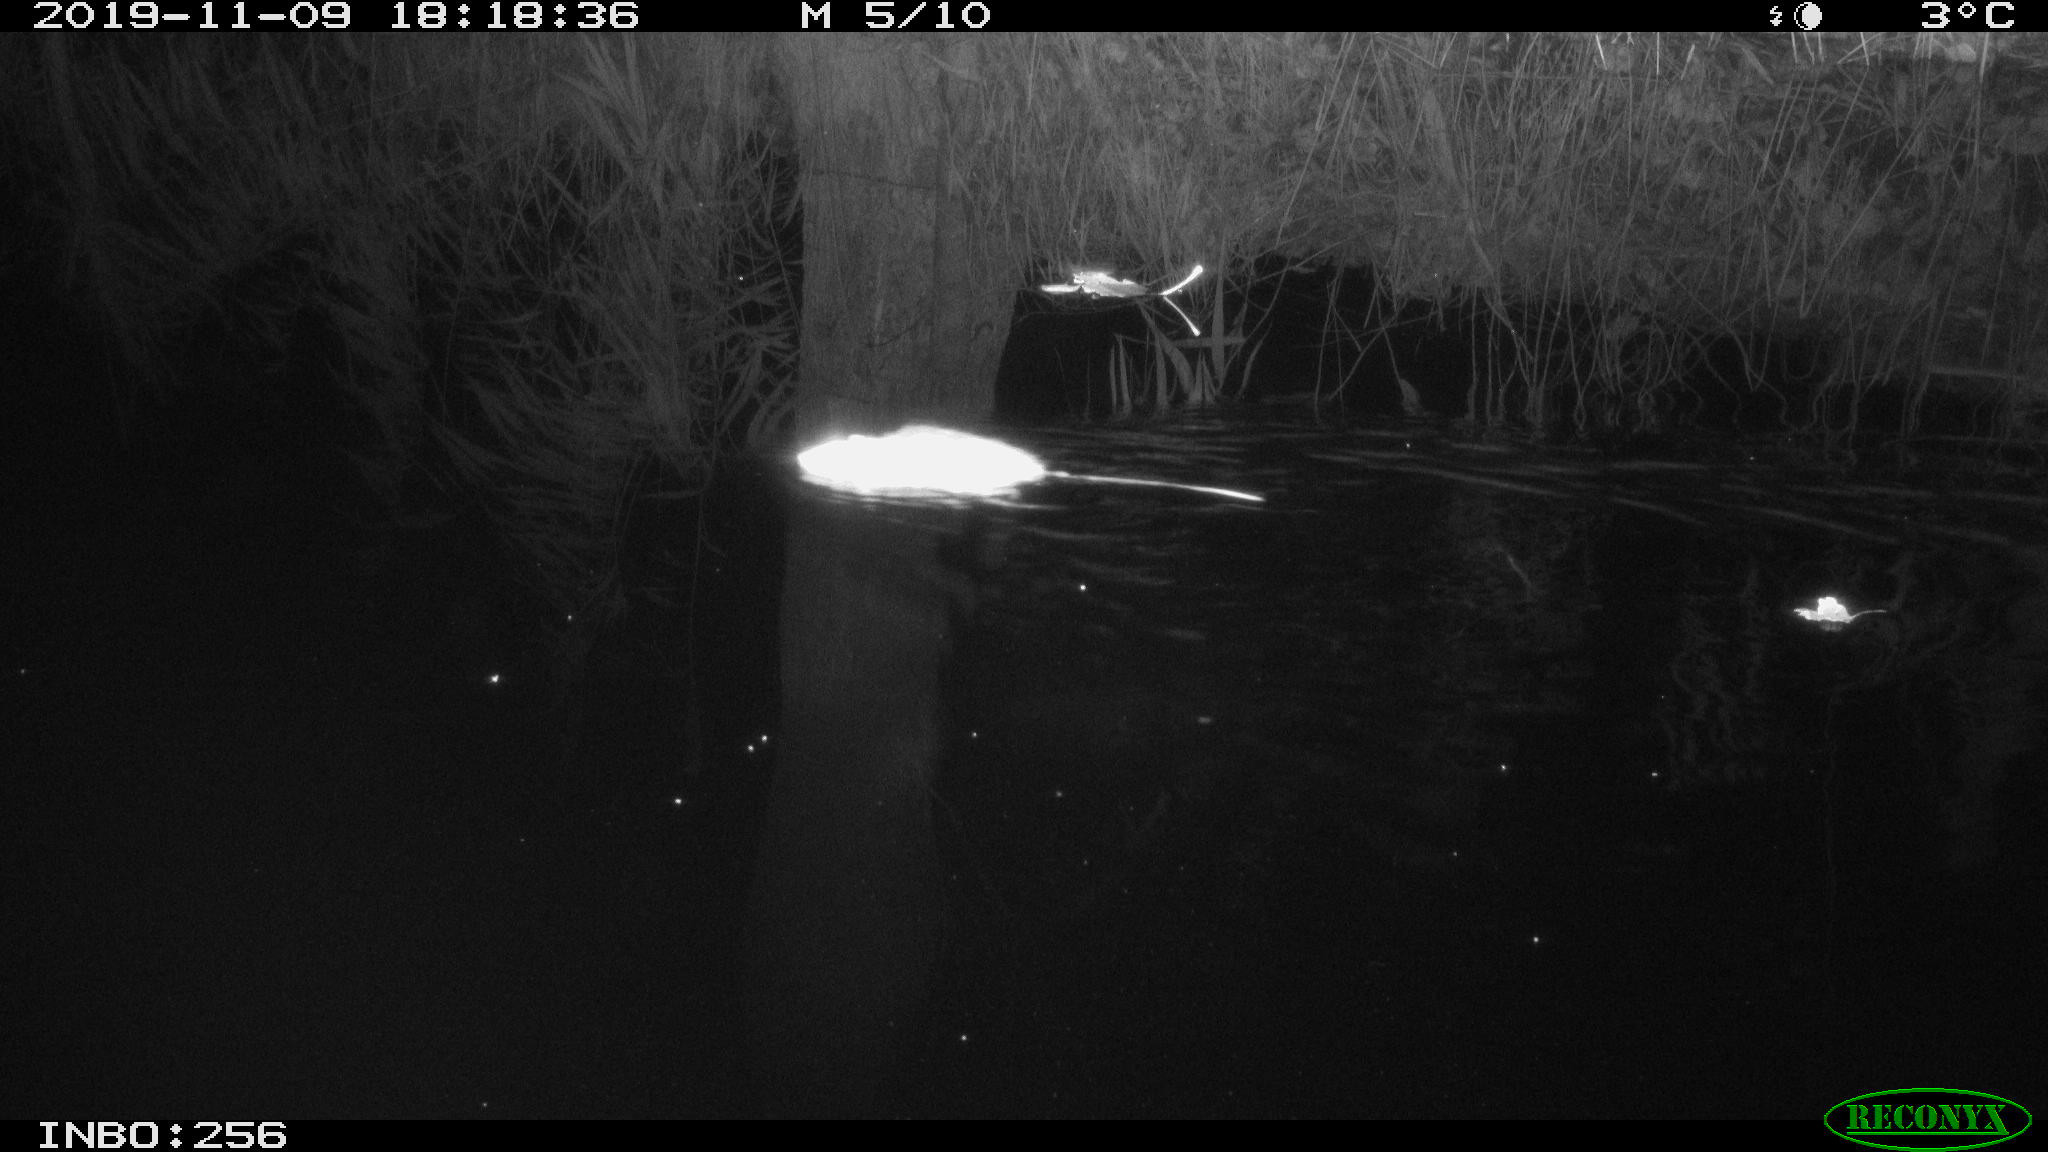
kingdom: Animalia
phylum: Chordata
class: Mammalia
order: Rodentia
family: Muridae
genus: Rattus
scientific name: Rattus norvegicus
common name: Brown rat
